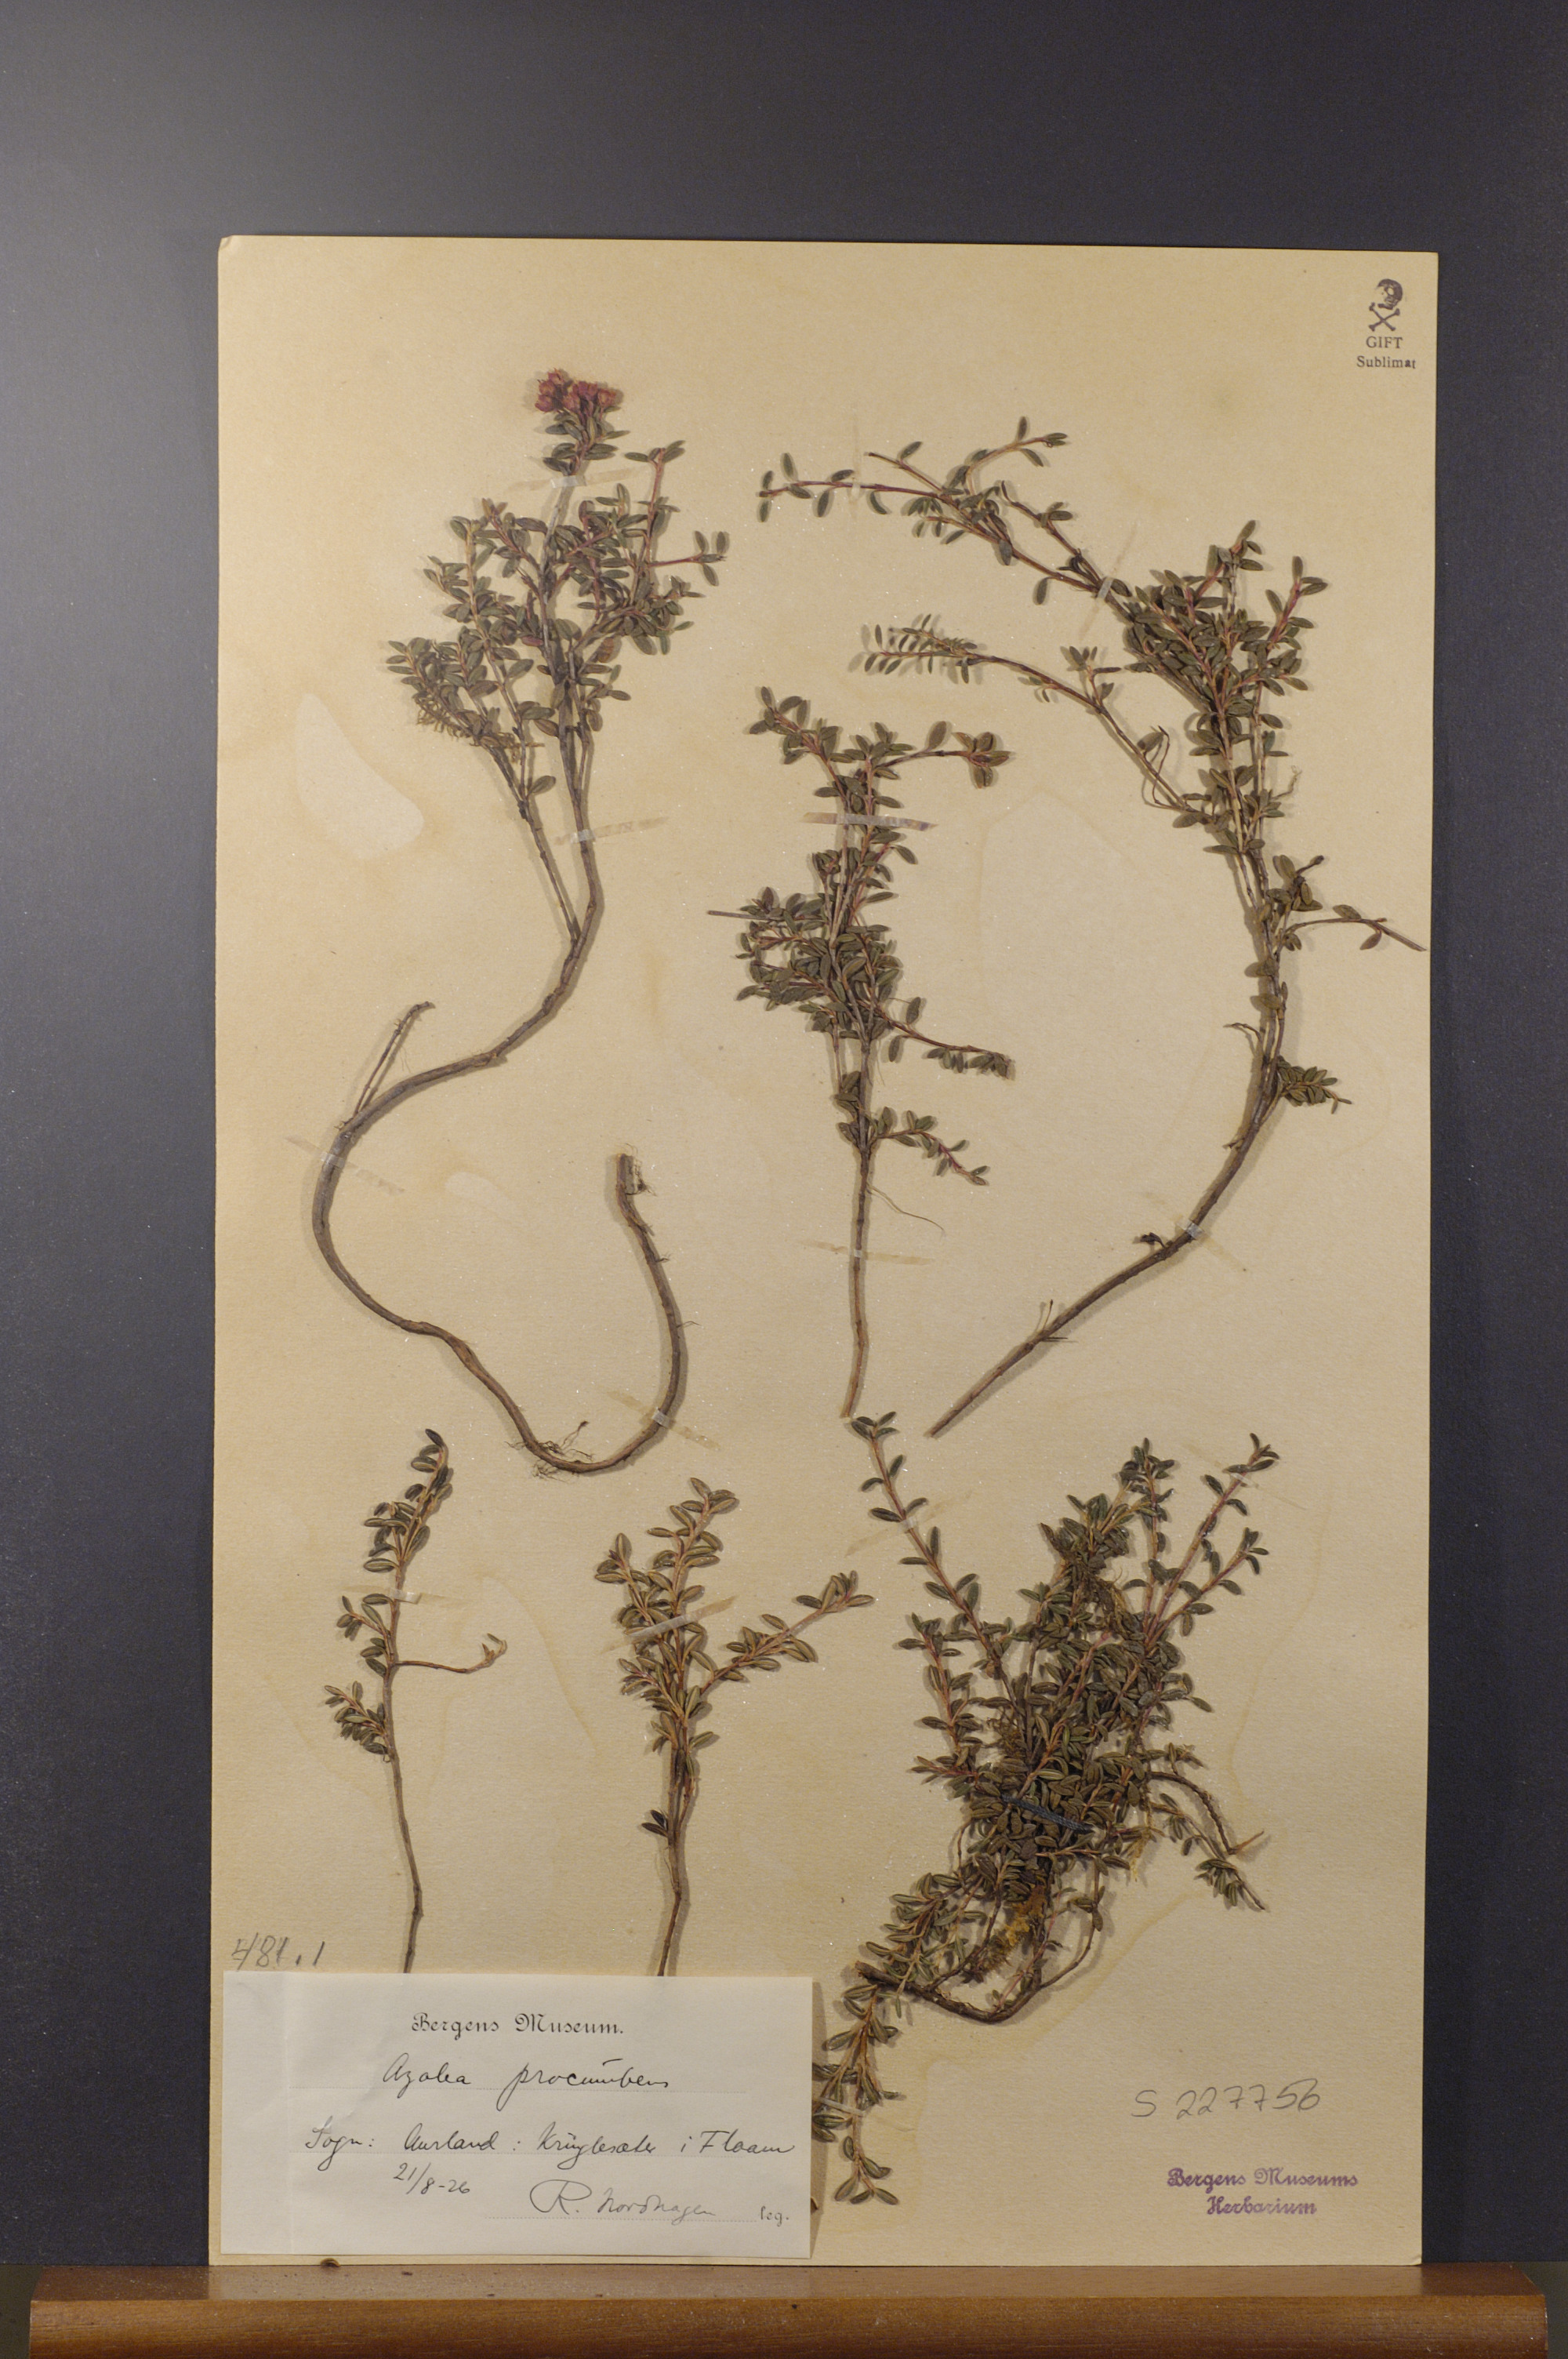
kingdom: Plantae
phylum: Tracheophyta
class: Magnoliopsida
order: Ericales
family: Ericaceae
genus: Kalmia
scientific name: Kalmia procumbens
